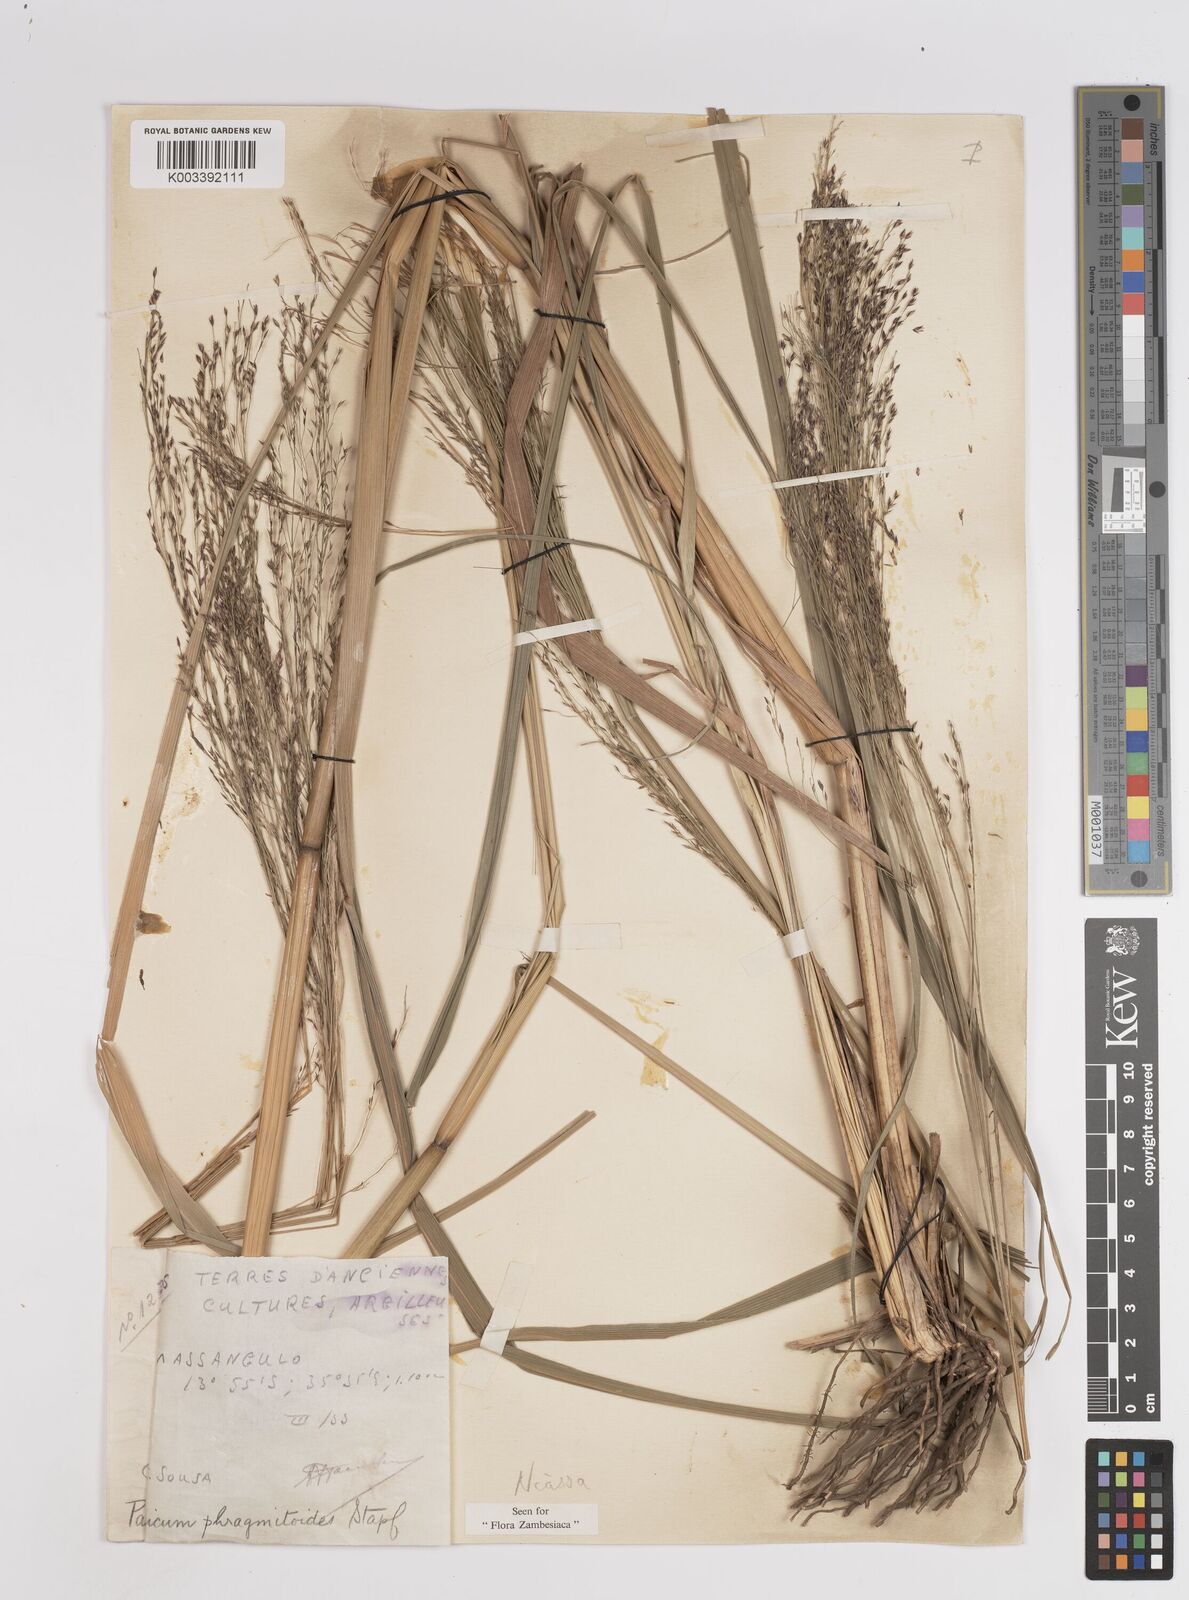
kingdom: Plantae
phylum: Tracheophyta
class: Liliopsida
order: Poales
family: Poaceae
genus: Panicum
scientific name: Panicum phragmitoides
